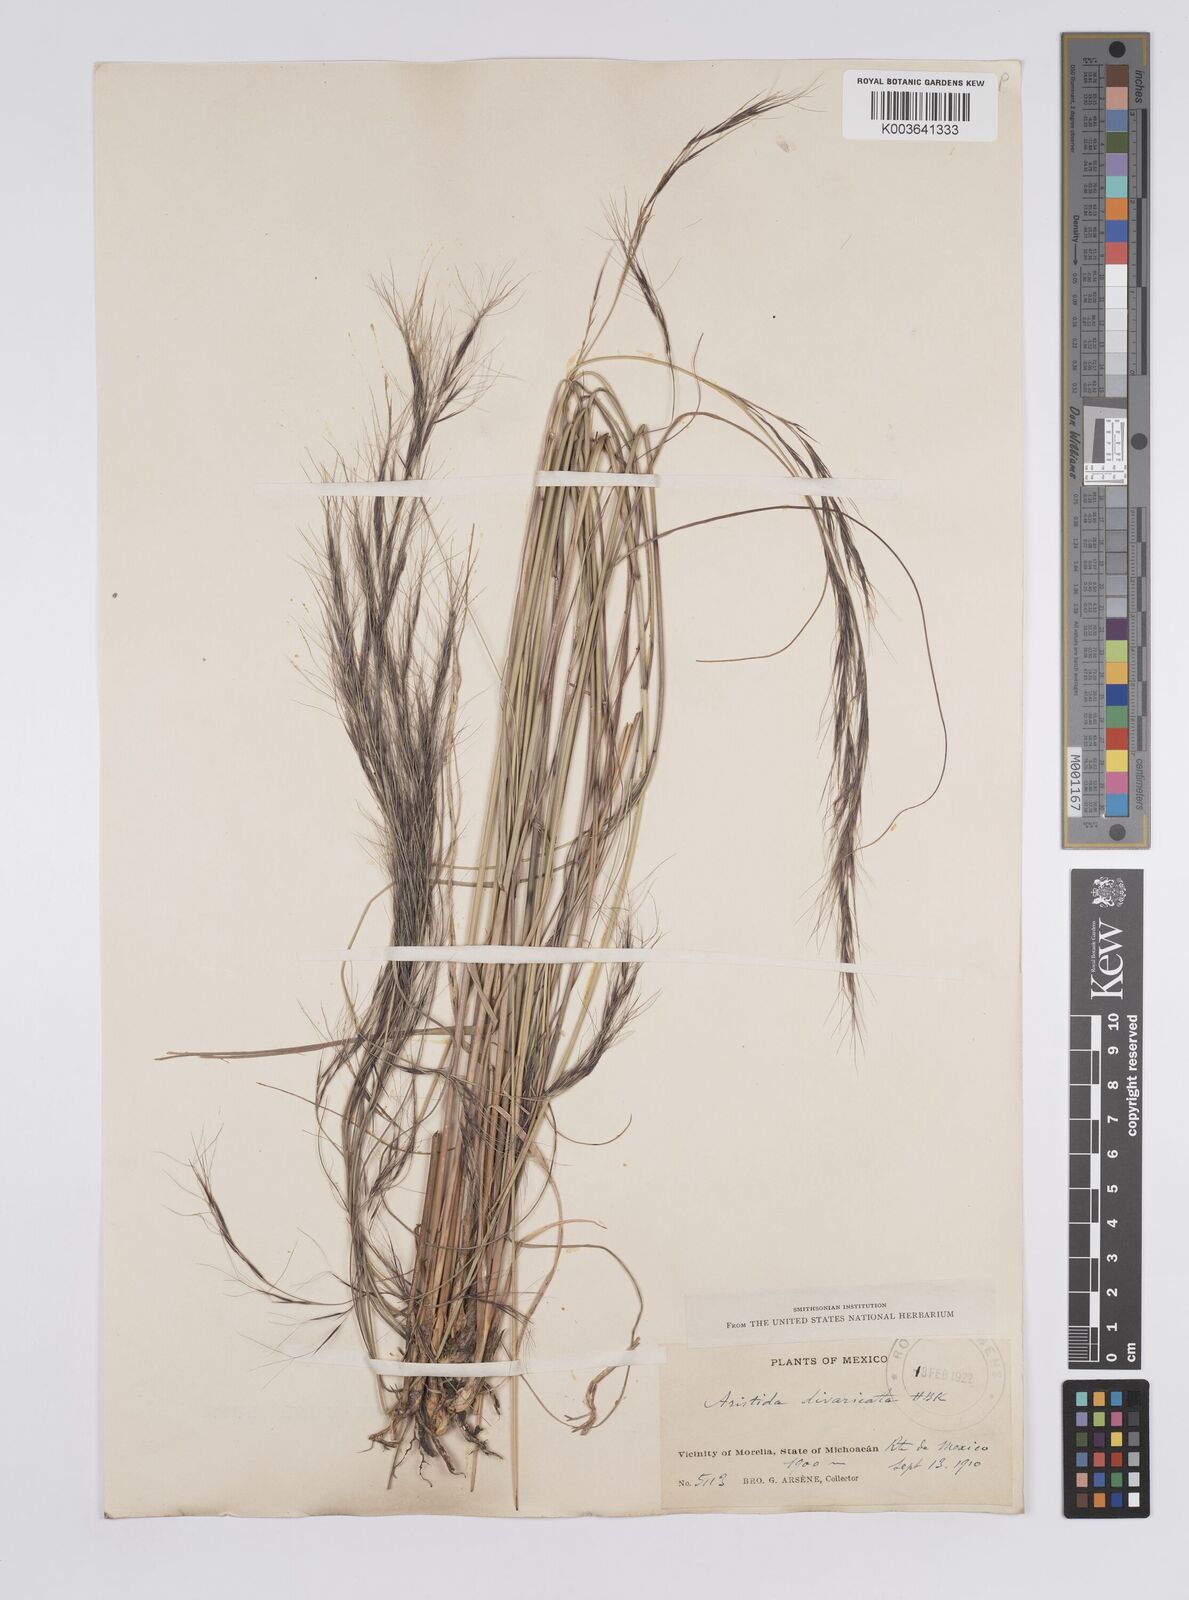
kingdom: Plantae
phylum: Tracheophyta
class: Liliopsida
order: Poales
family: Poaceae
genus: Aristida
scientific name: Aristida divaricata
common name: Poverty grass
